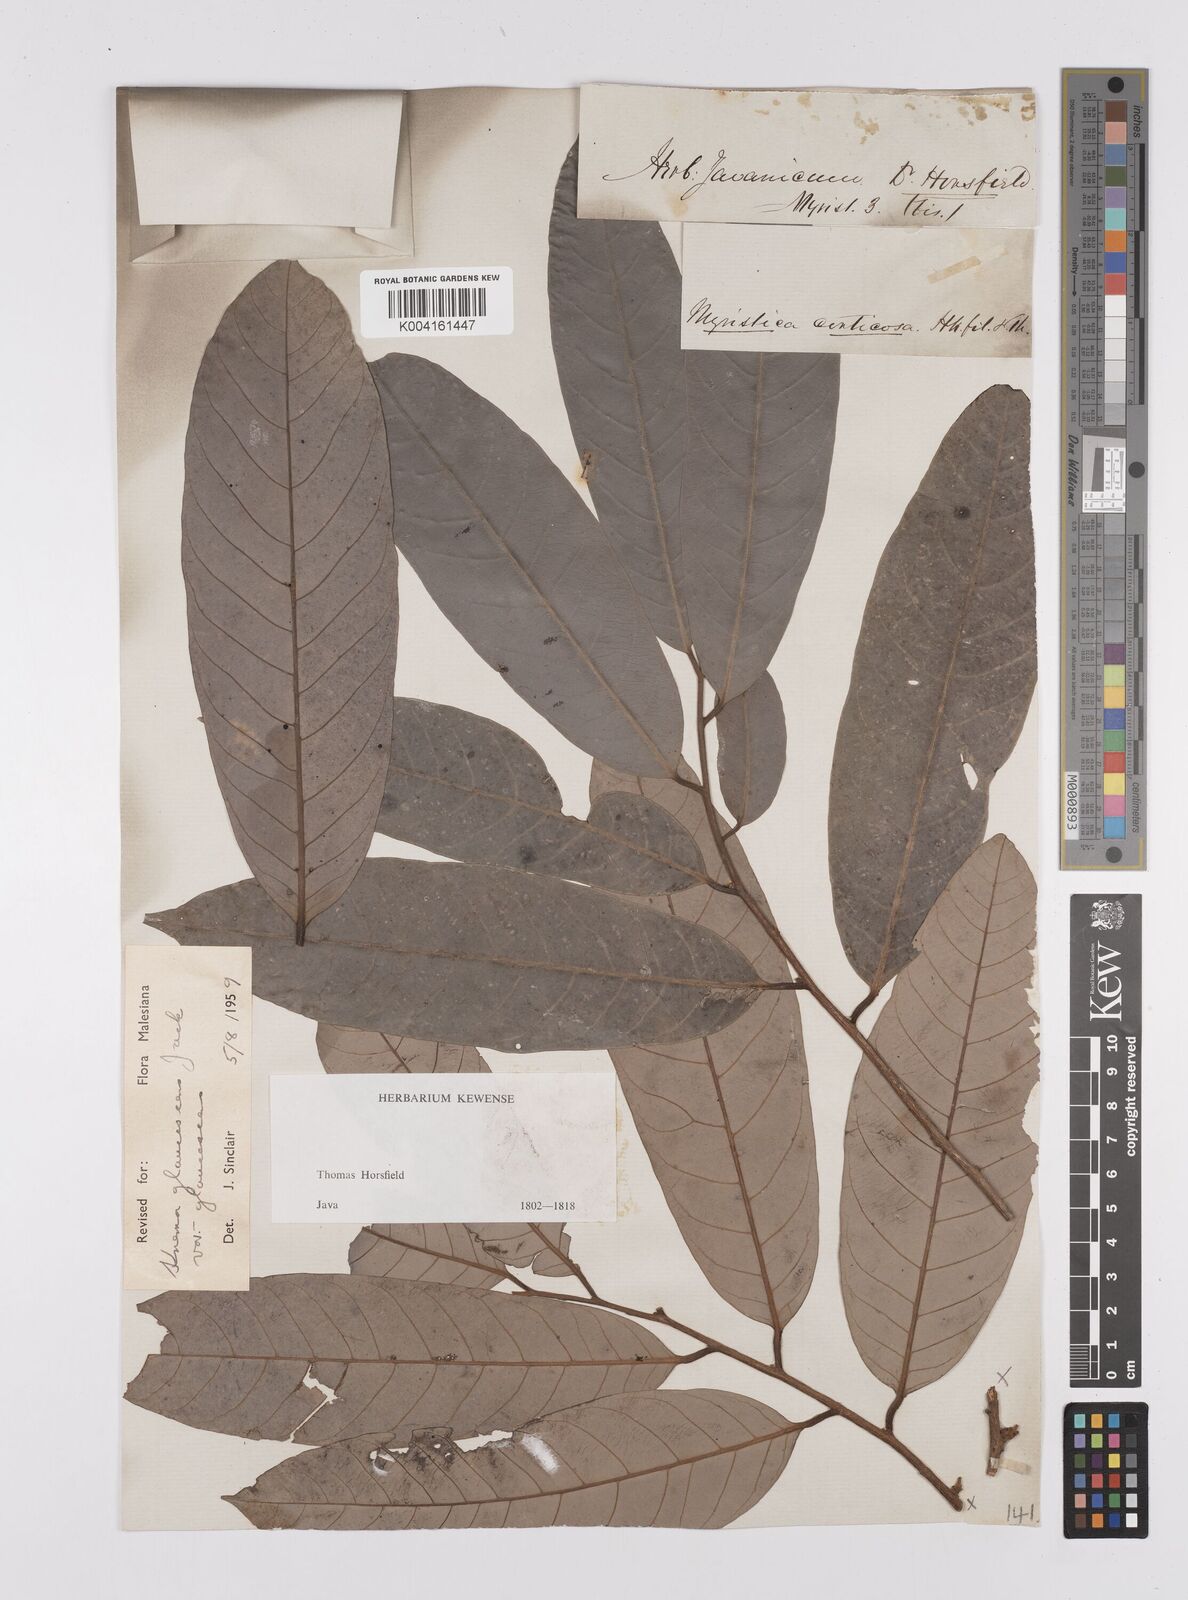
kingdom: Plantae
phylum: Tracheophyta
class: Magnoliopsida
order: Magnoliales
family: Myristicaceae
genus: Knema
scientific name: Knema
